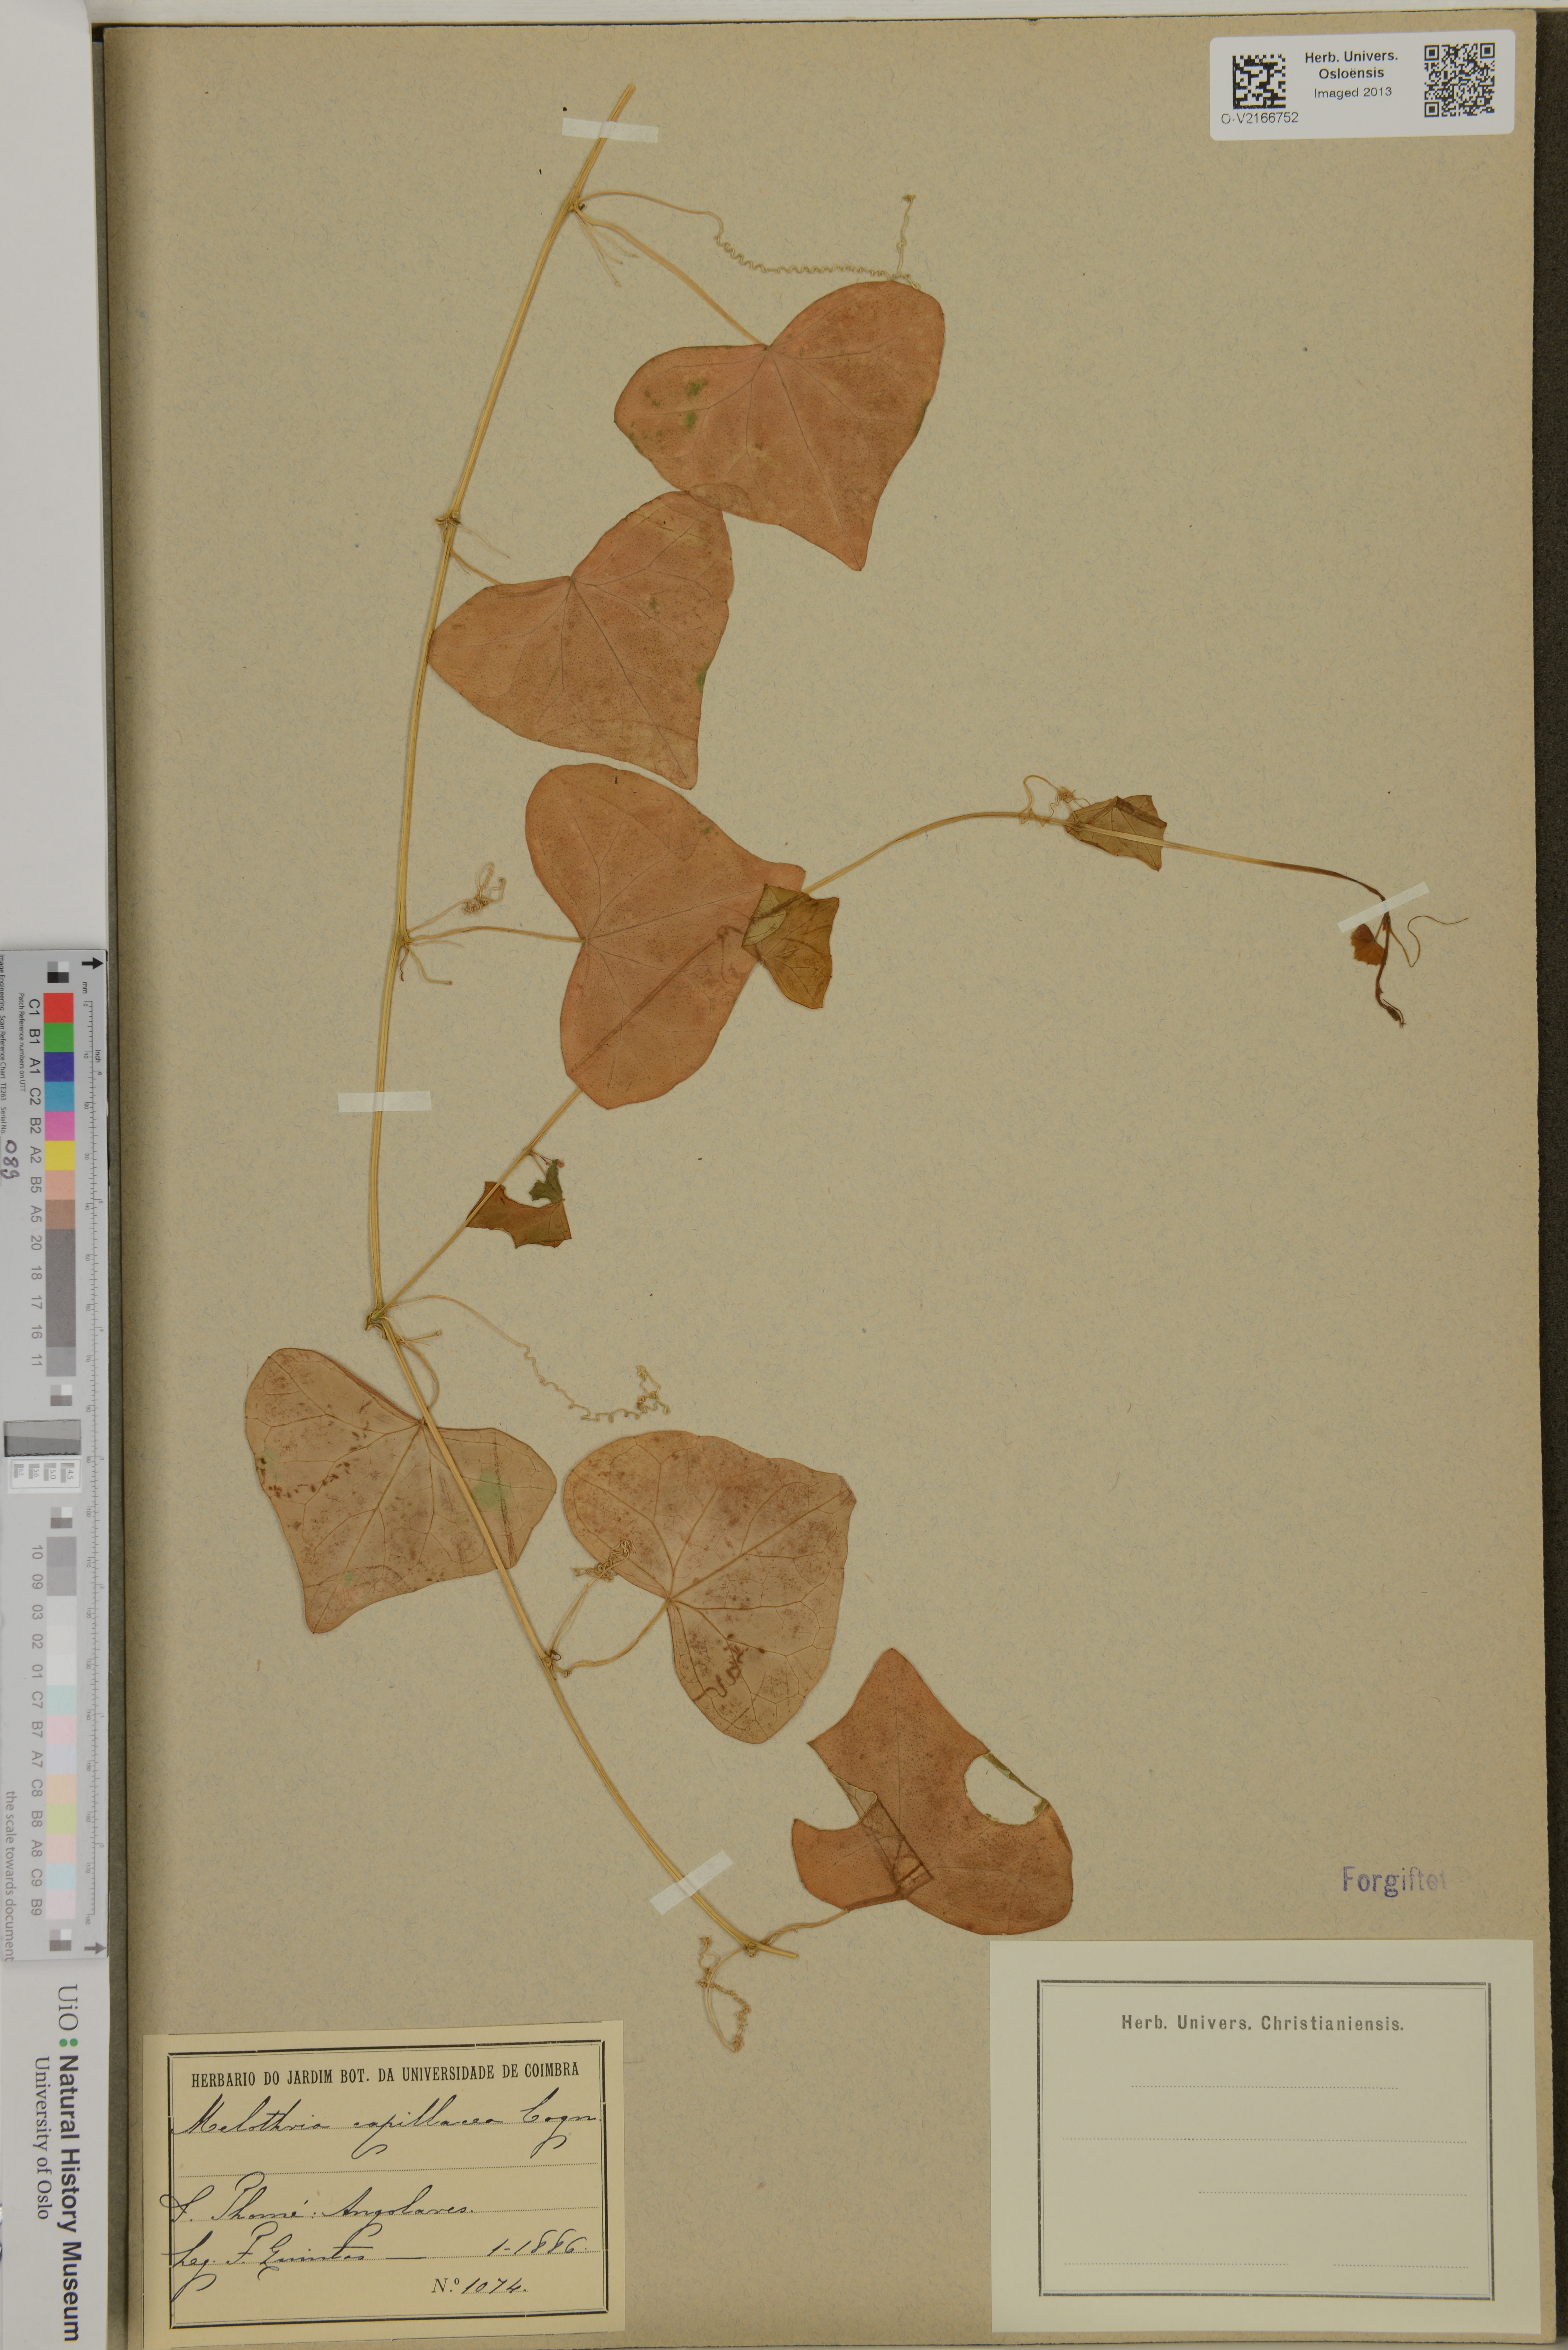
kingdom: Plantae
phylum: Tracheophyta
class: Magnoliopsida
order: Cucurbitales
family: Cucurbitaceae
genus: Zehneria
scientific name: Zehneria capillacea
